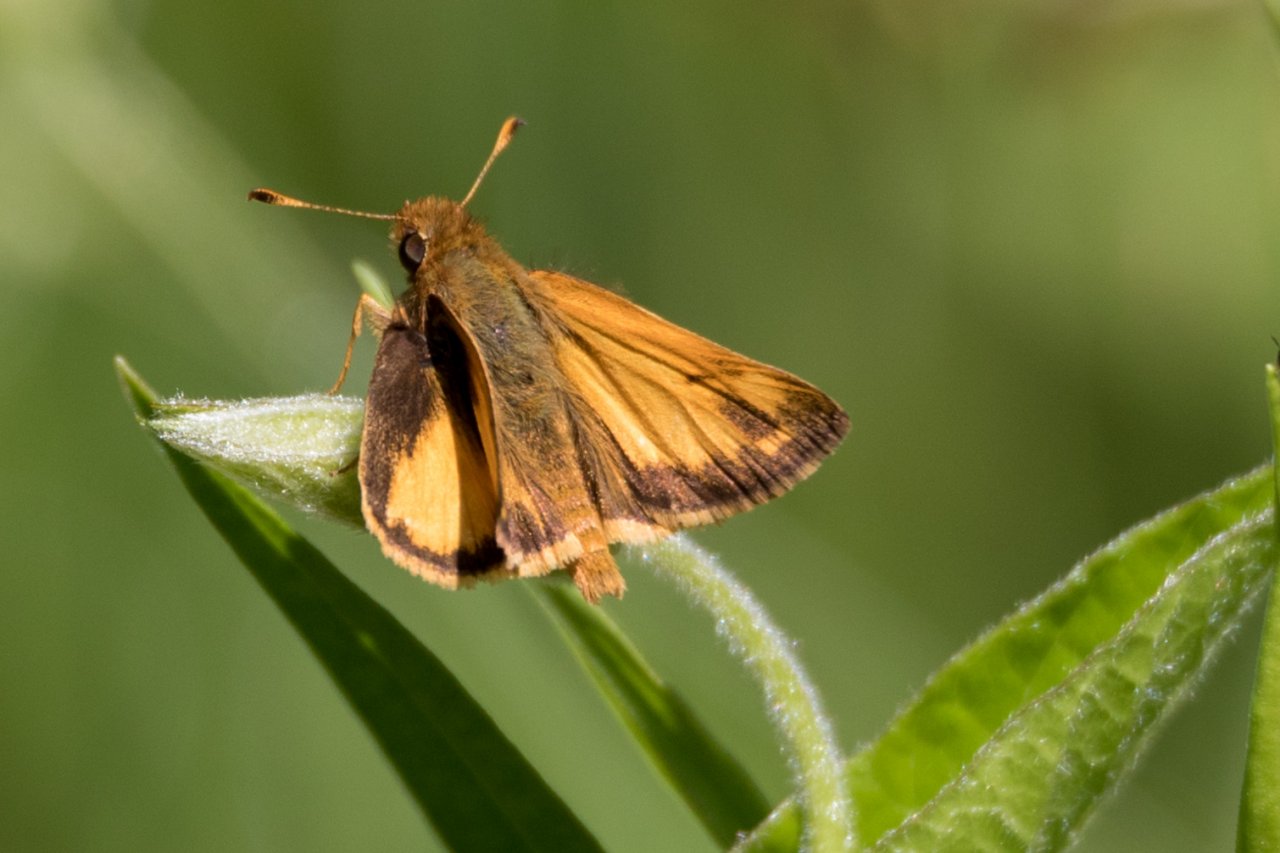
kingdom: Animalia
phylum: Arthropoda
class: Insecta
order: Lepidoptera
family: Hesperiidae
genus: Lon
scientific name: Lon zabulon
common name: Zabulon Skipper
